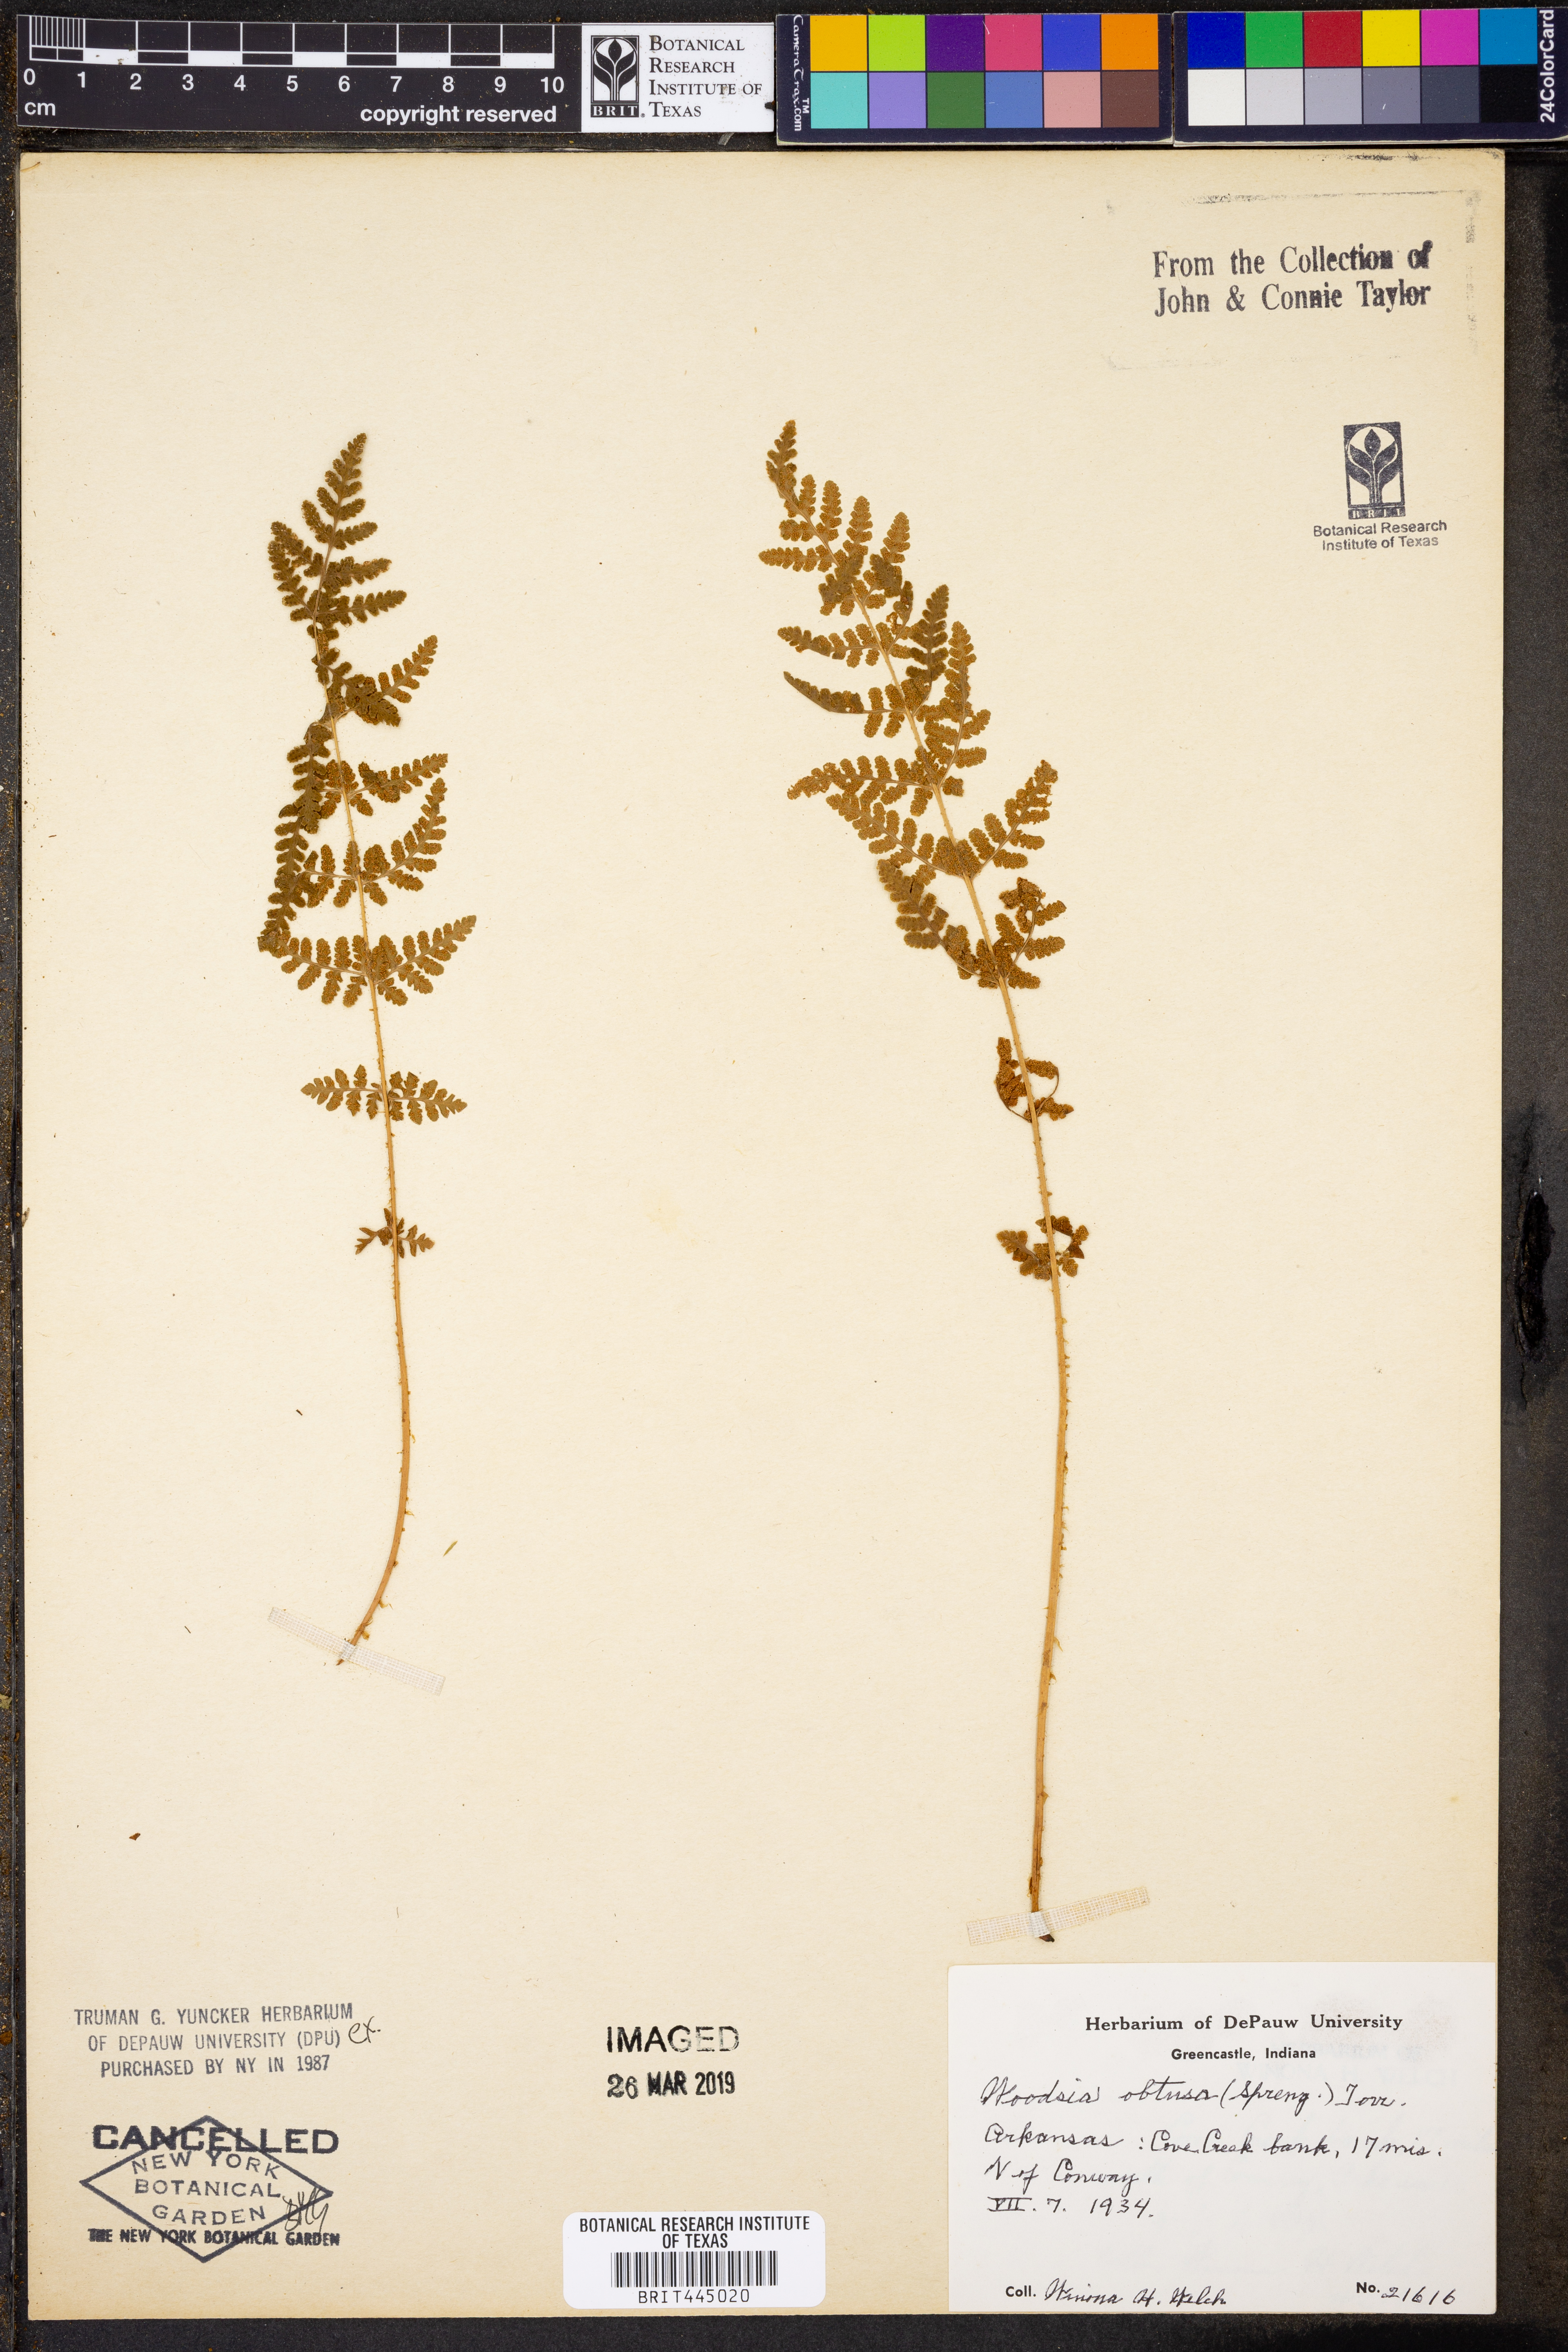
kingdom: Plantae
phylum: Tracheophyta
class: Polypodiopsida
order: Polypodiales
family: Woodsiaceae
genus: Physematium
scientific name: Physematium obtusum
